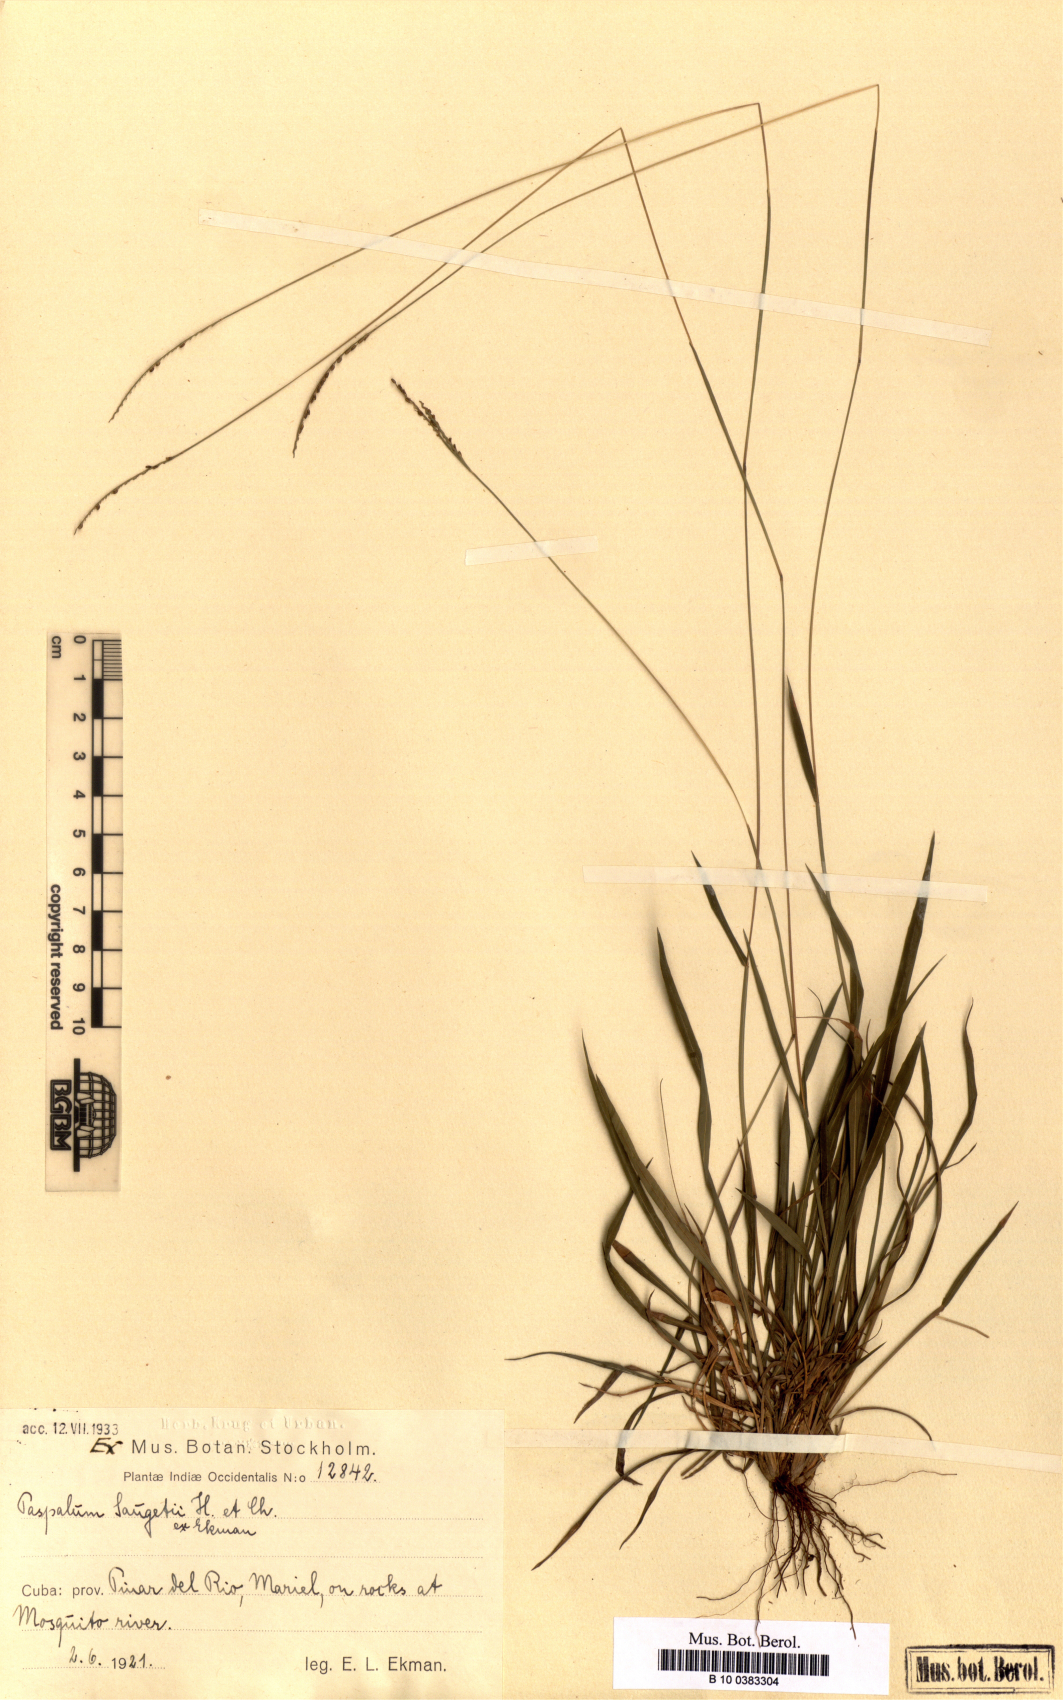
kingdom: Plantae
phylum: Tracheophyta
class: Liliopsida
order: Poales
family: Poaceae
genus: Paspalum
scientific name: Paspalum saugetii
